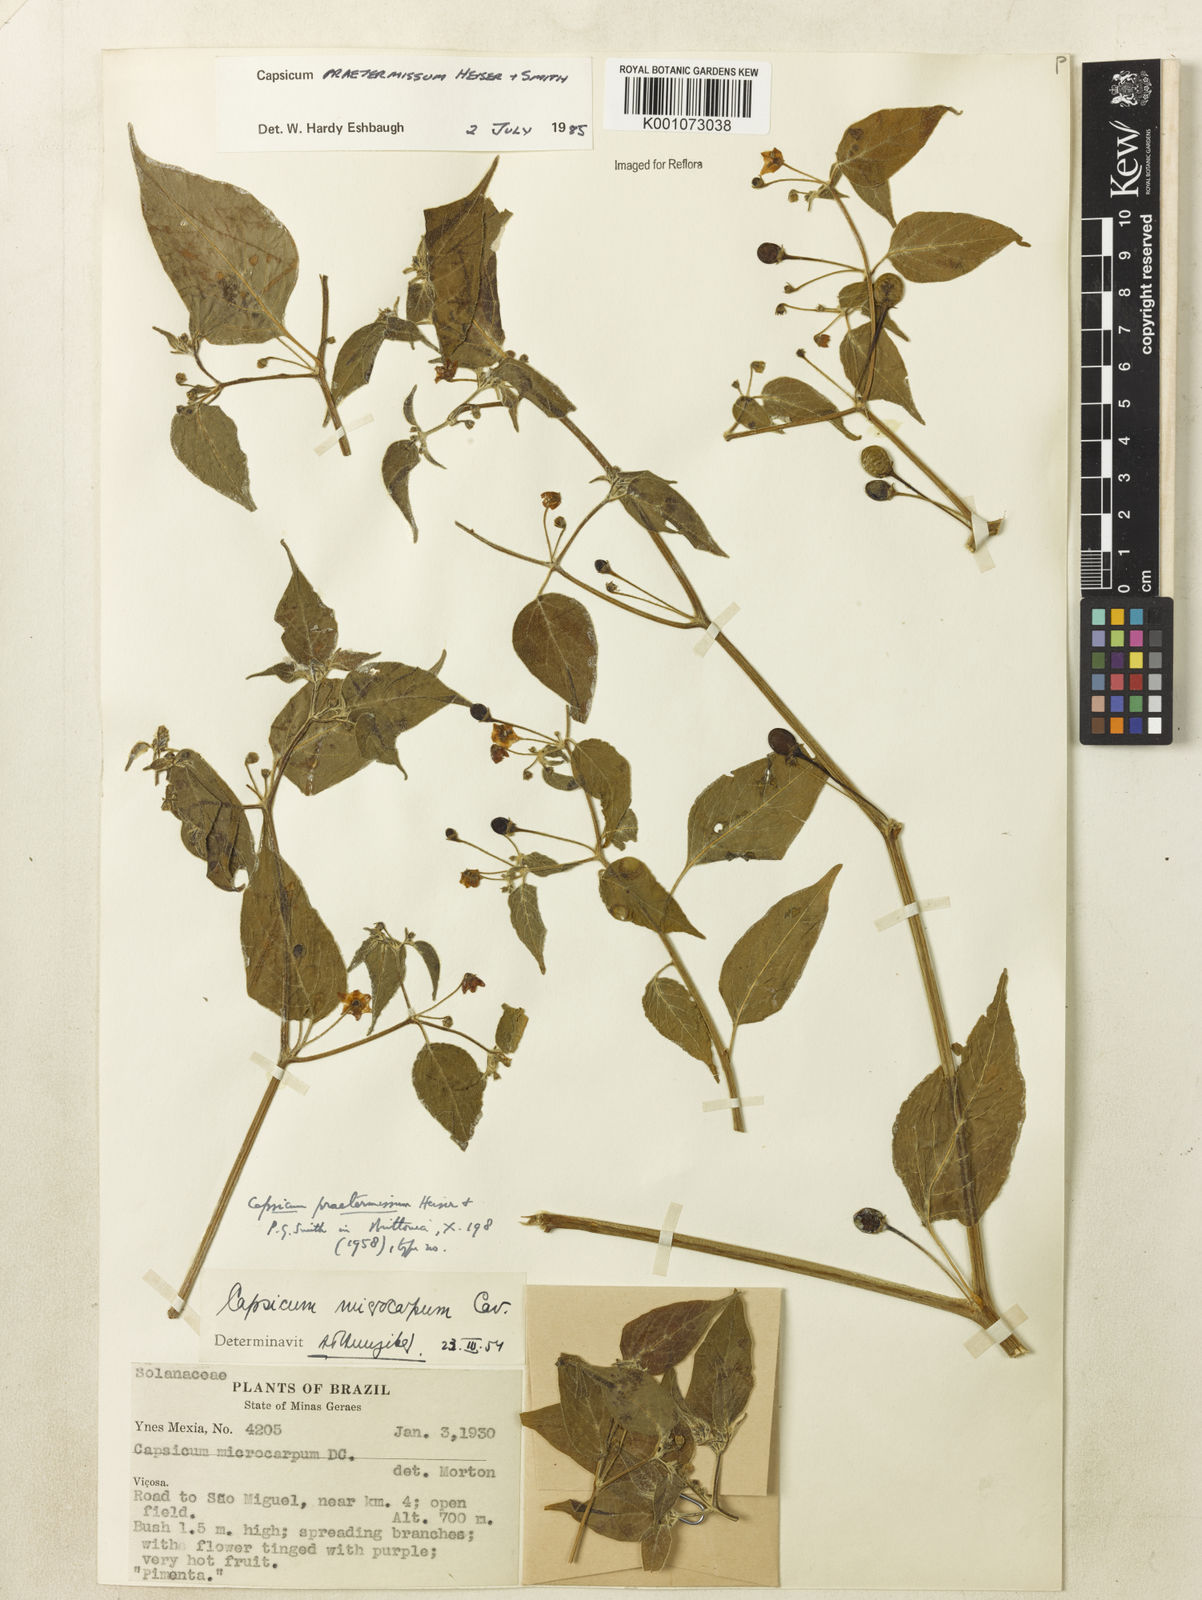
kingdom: Plantae
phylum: Tracheophyta
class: Magnoliopsida
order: Solanales
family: Solanaceae
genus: Capsicum
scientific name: Capsicum rabenii
